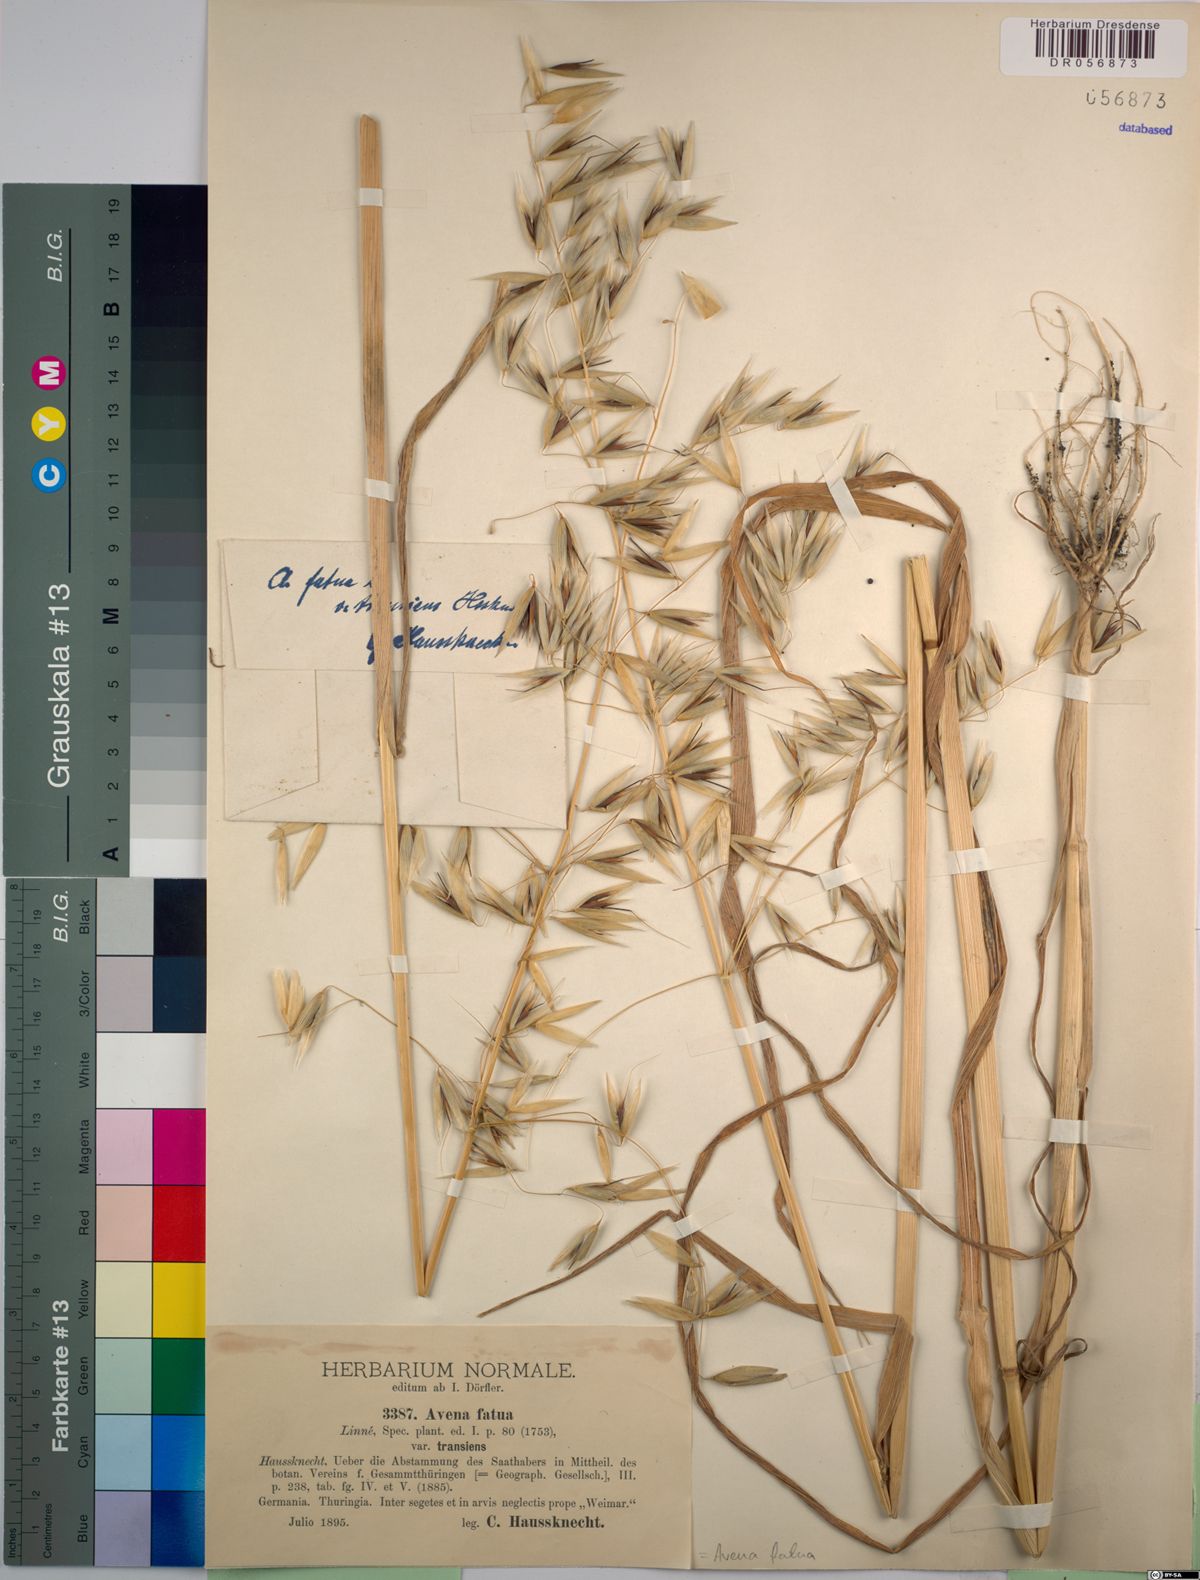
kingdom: Plantae
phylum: Tracheophyta
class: Liliopsida
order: Poales
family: Poaceae
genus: Avena
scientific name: Avena fatua
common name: Wild oat
